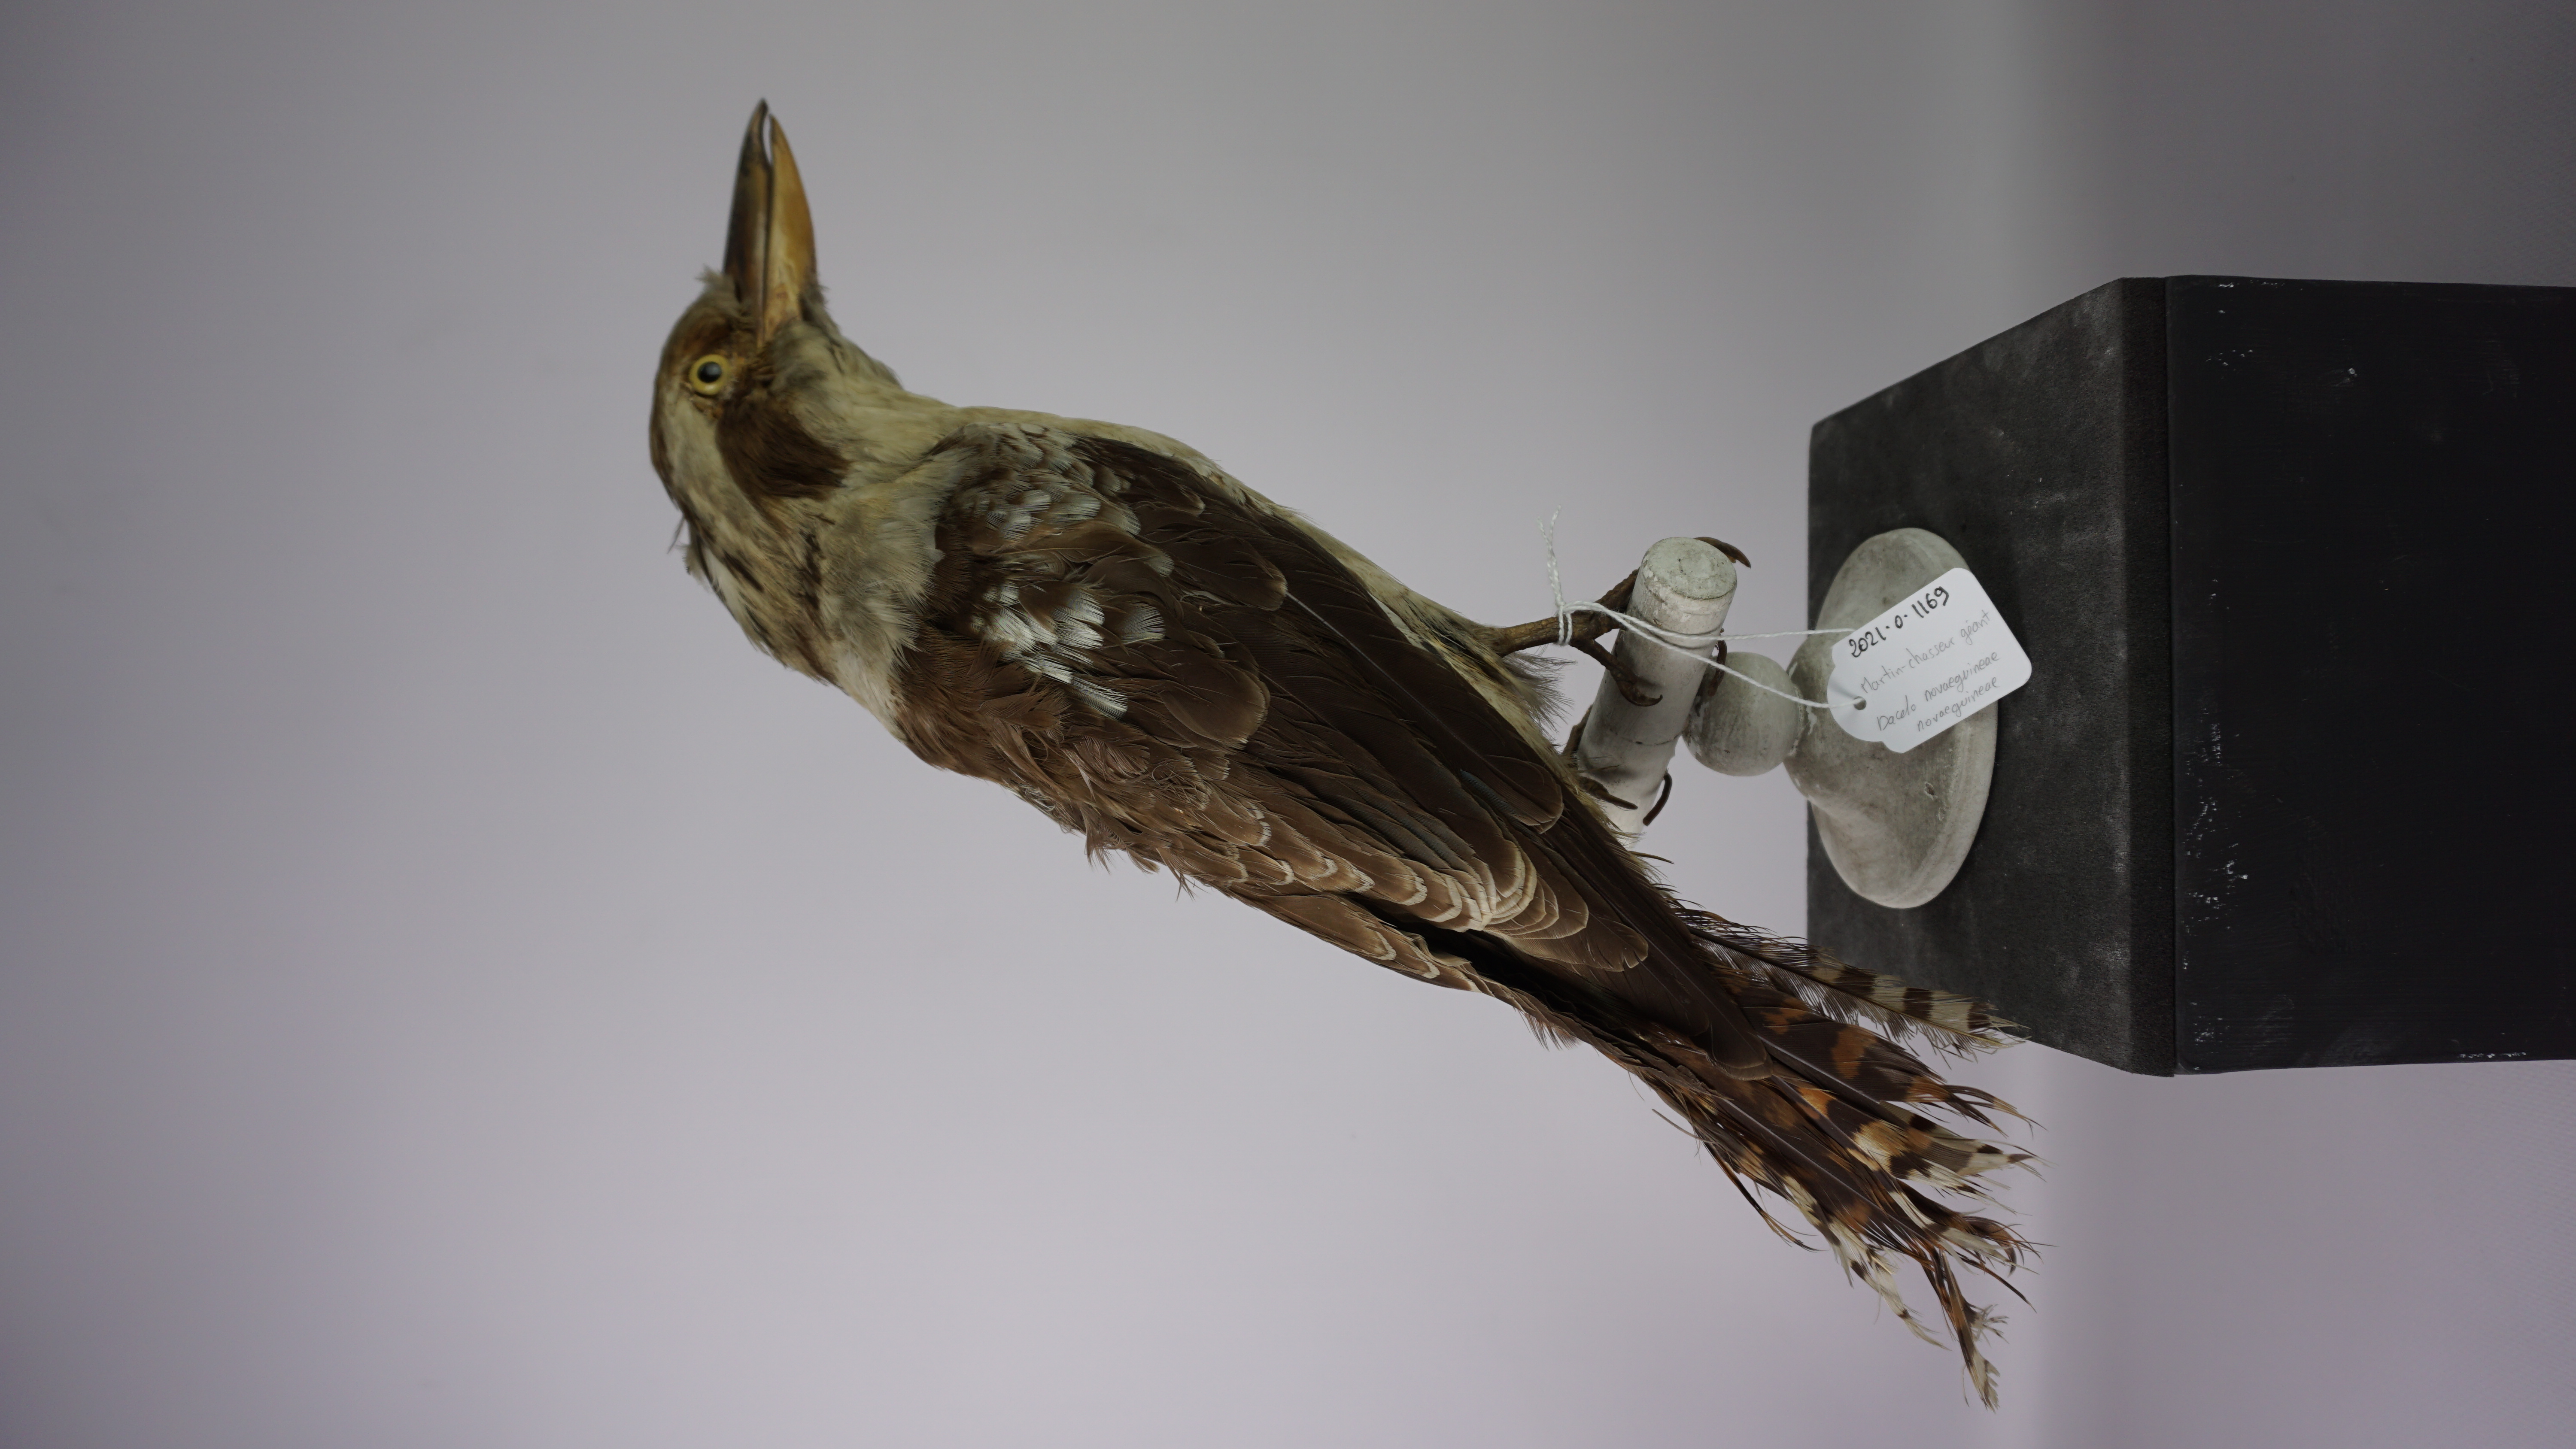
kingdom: Animalia
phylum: Chordata
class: Aves
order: Coraciiformes
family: Alcedinidae
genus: Dacelo
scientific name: Dacelo novaeguineae
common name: Laughing kookaburra
